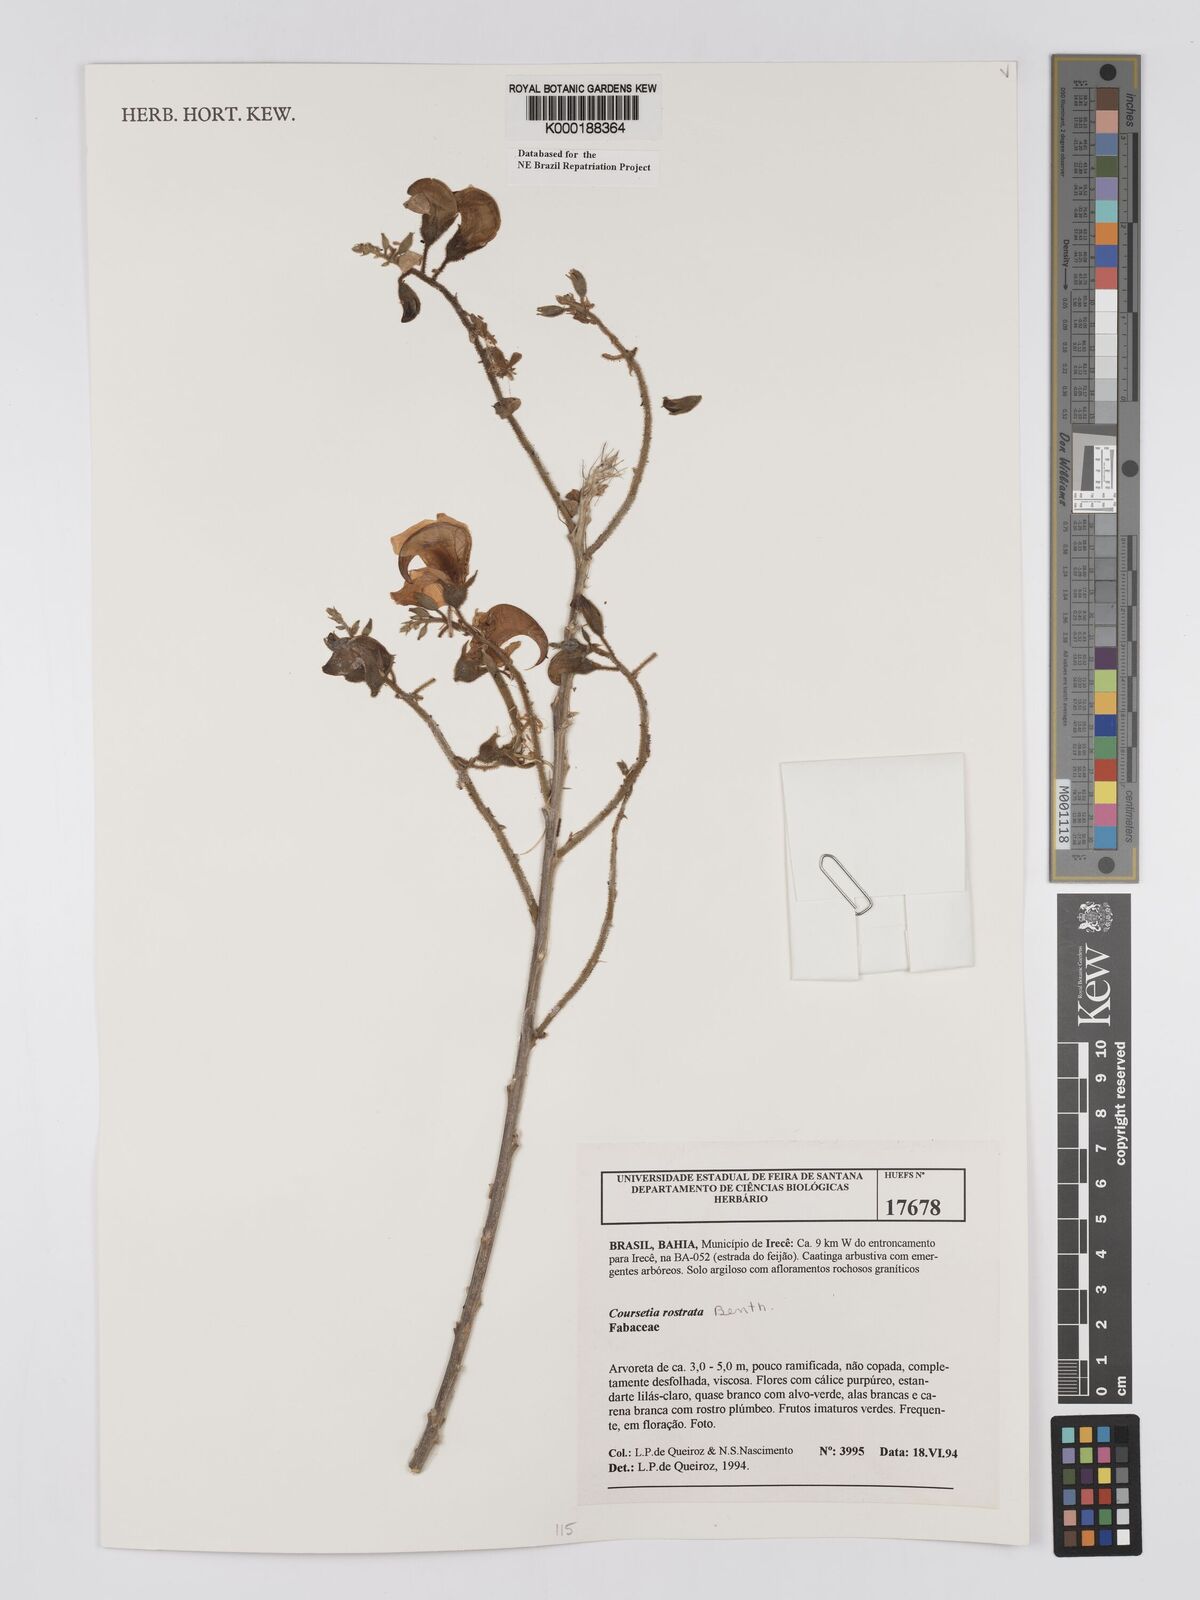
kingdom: Plantae
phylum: Tracheophyta
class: Magnoliopsida
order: Fabales
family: Fabaceae
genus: Coursetia
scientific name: Coursetia rostrata
